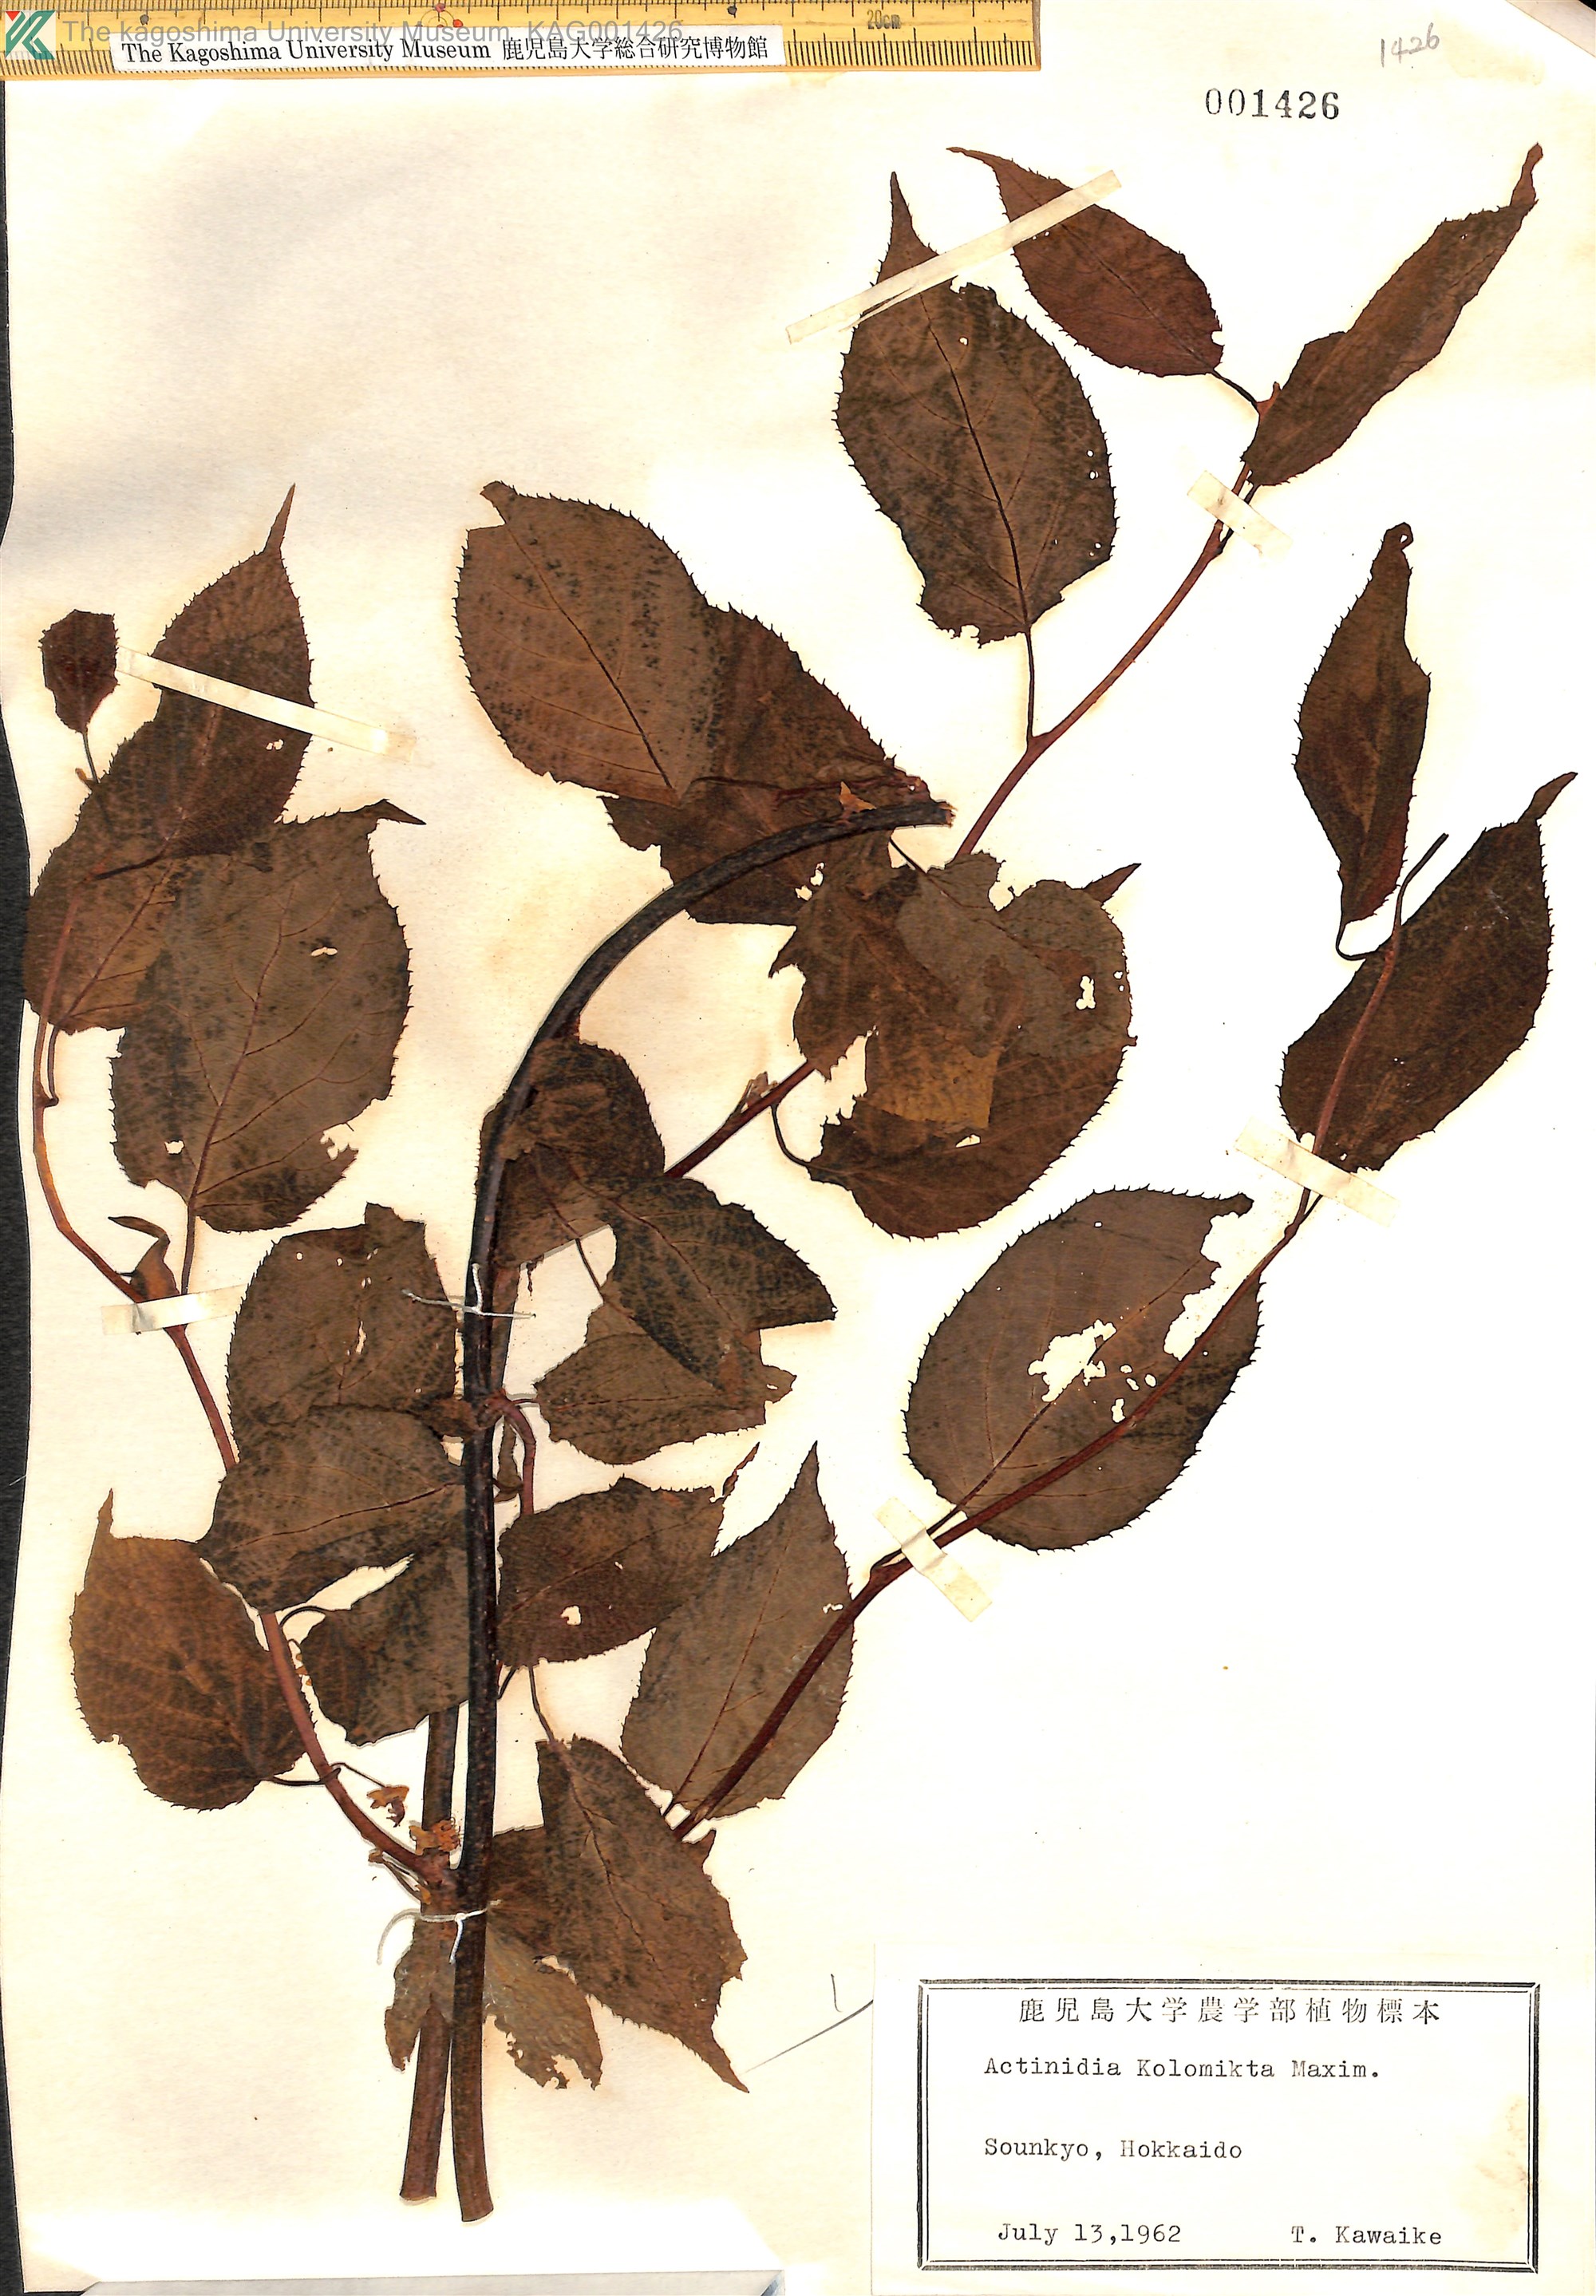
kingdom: Plantae
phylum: Tracheophyta
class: Magnoliopsida
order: Ericales
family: Actinidiaceae
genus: Actinidia
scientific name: Actinidia kolomikta
